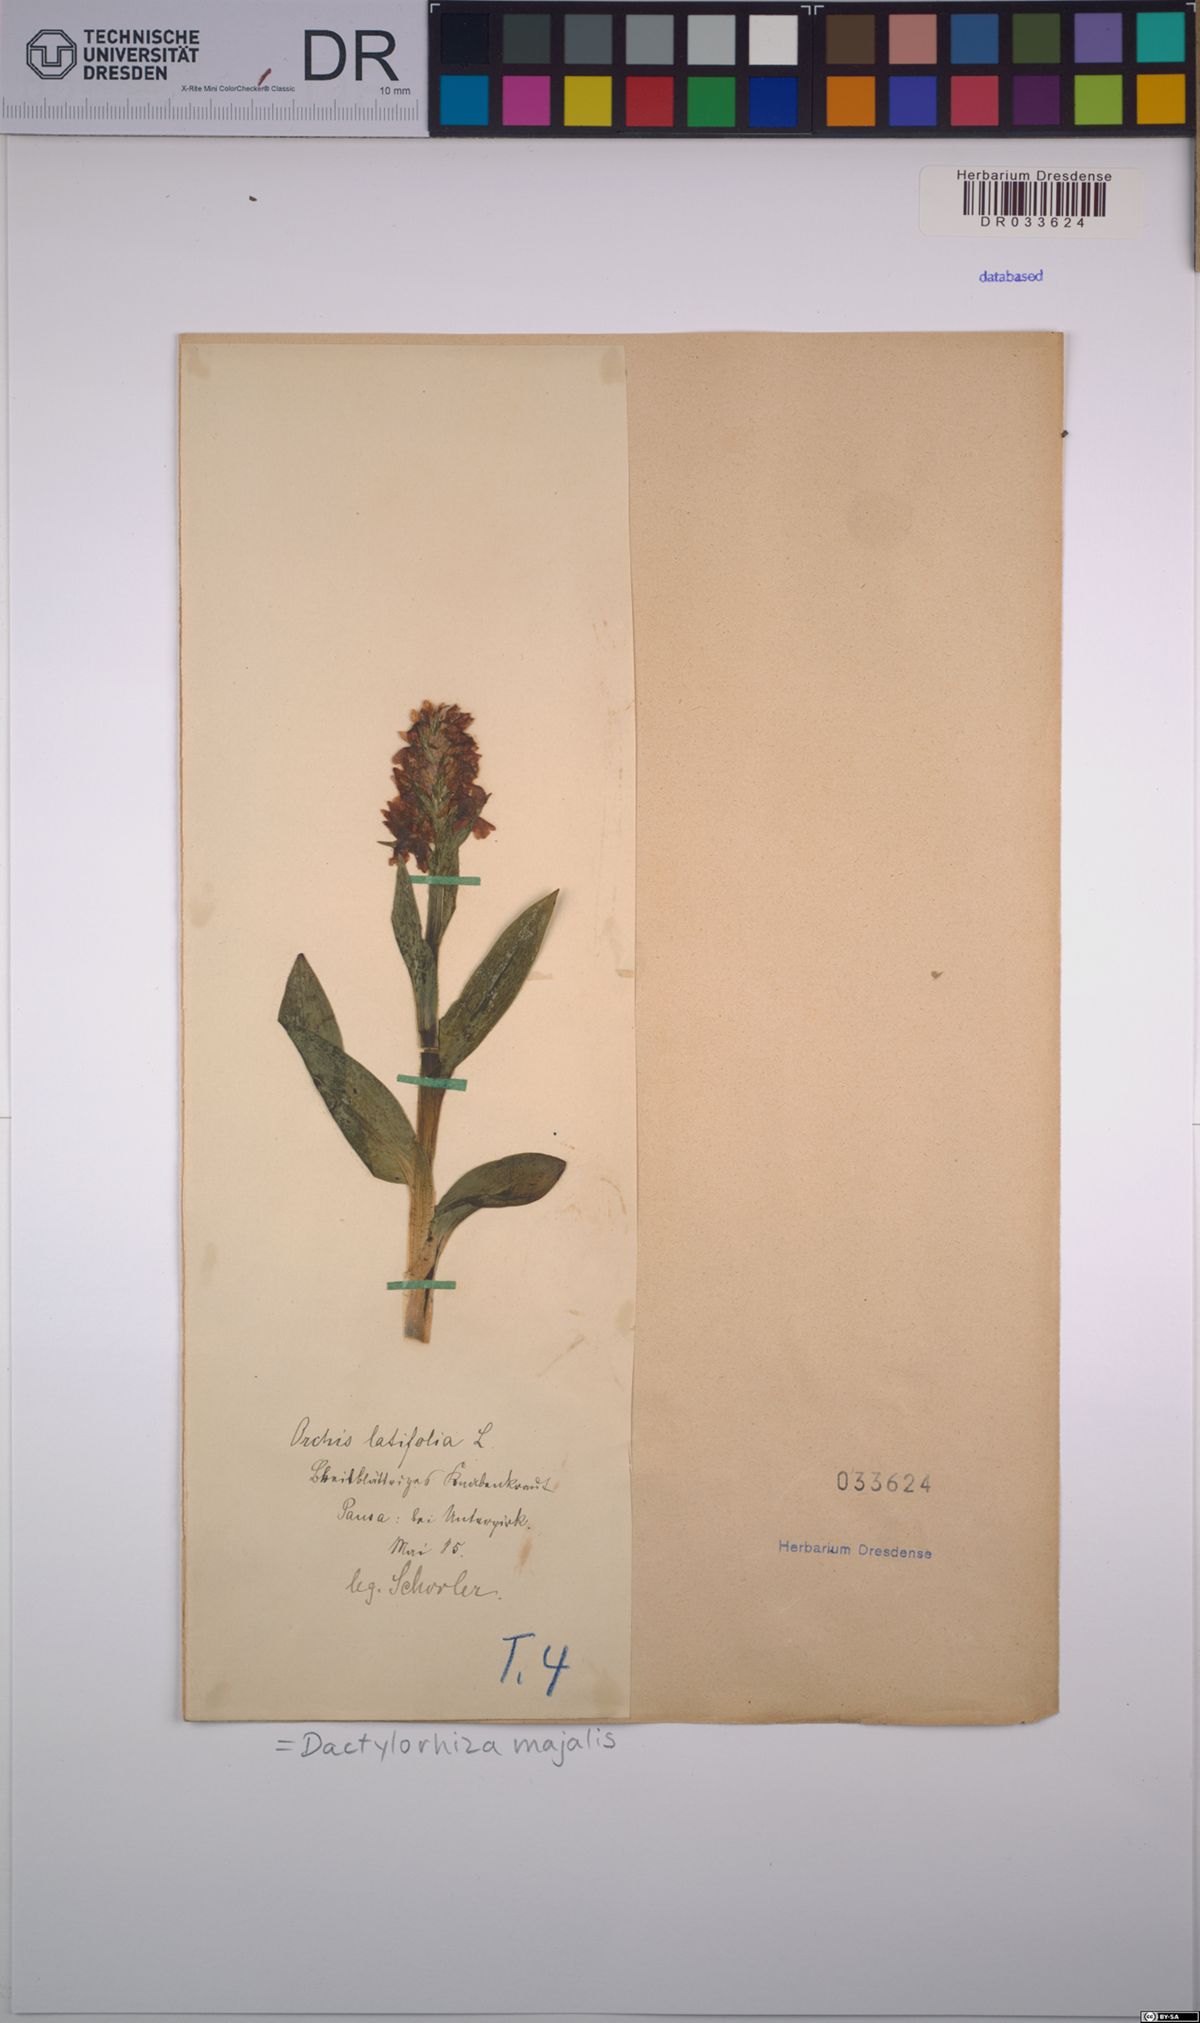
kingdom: Plantae
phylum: Tracheophyta
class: Liliopsida
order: Asparagales
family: Orchidaceae
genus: Dactylorhiza
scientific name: Dactylorhiza majalis
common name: Marsh orchid
